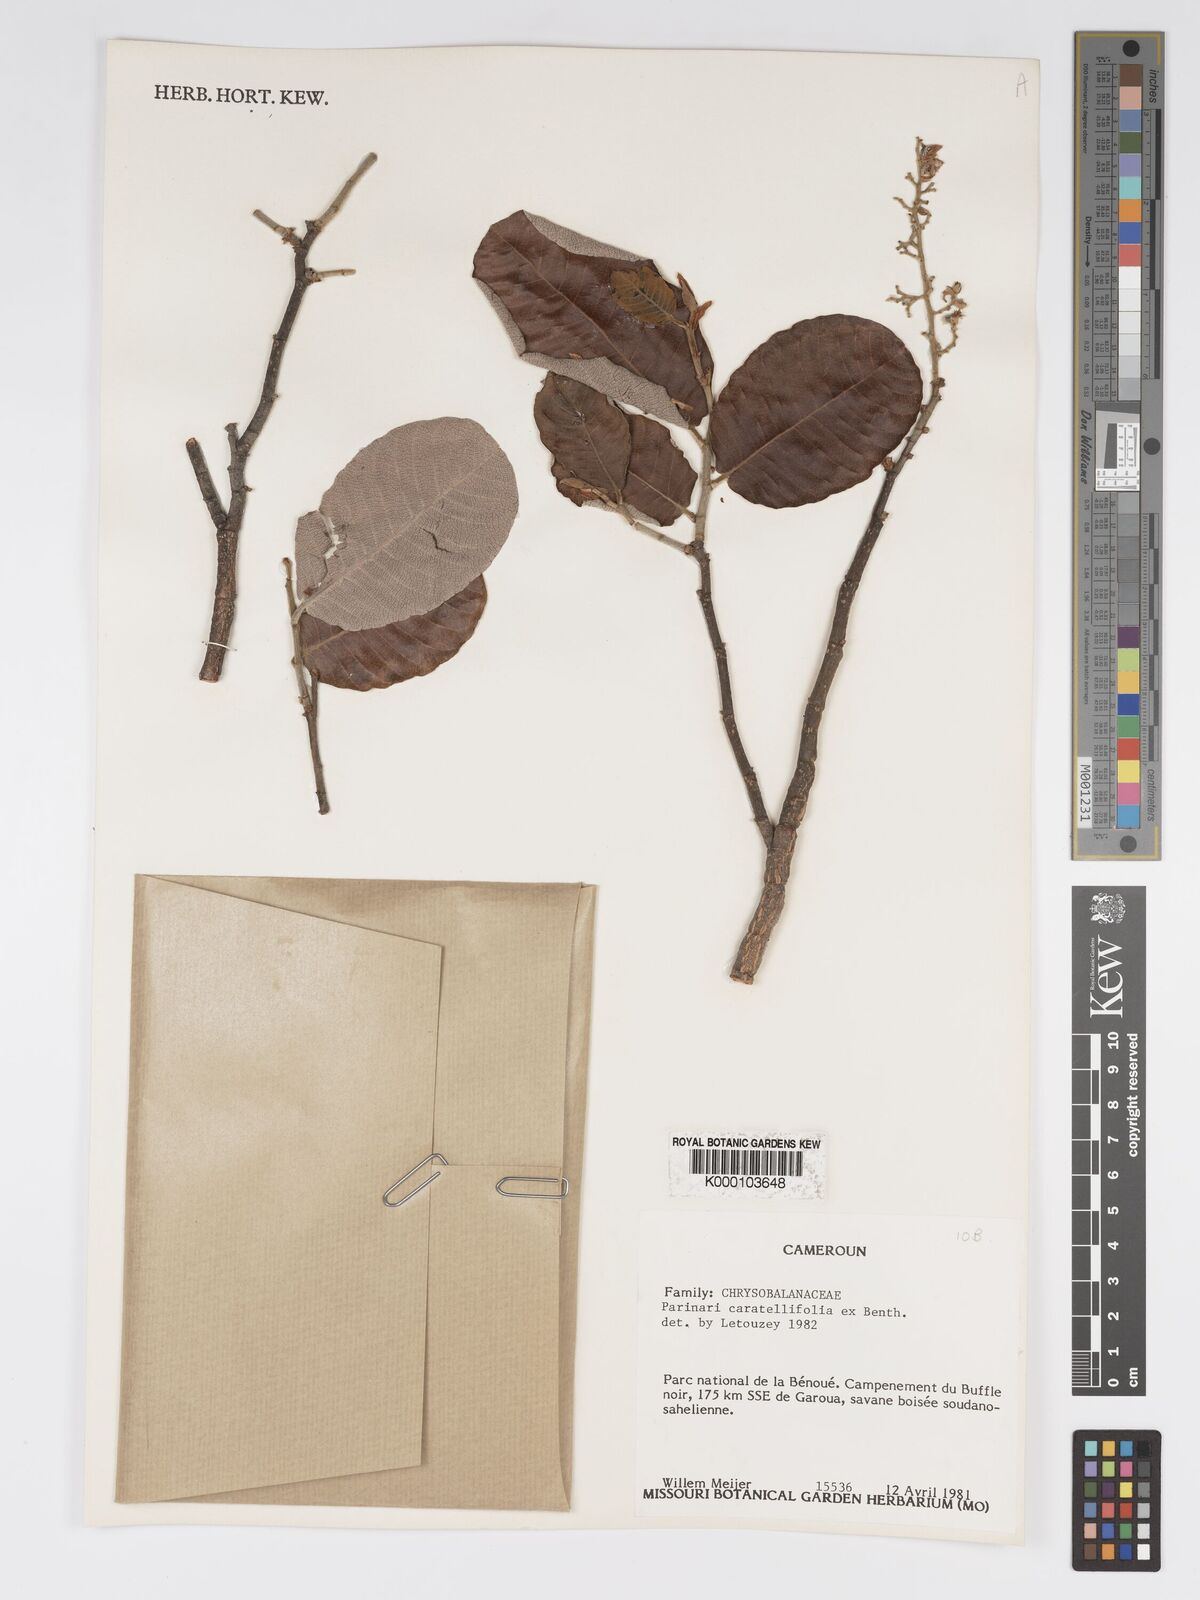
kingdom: Plantae
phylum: Tracheophyta
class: Magnoliopsida
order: Malpighiales
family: Chrysobalanaceae
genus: Parinari
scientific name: Parinari curatellifolia
